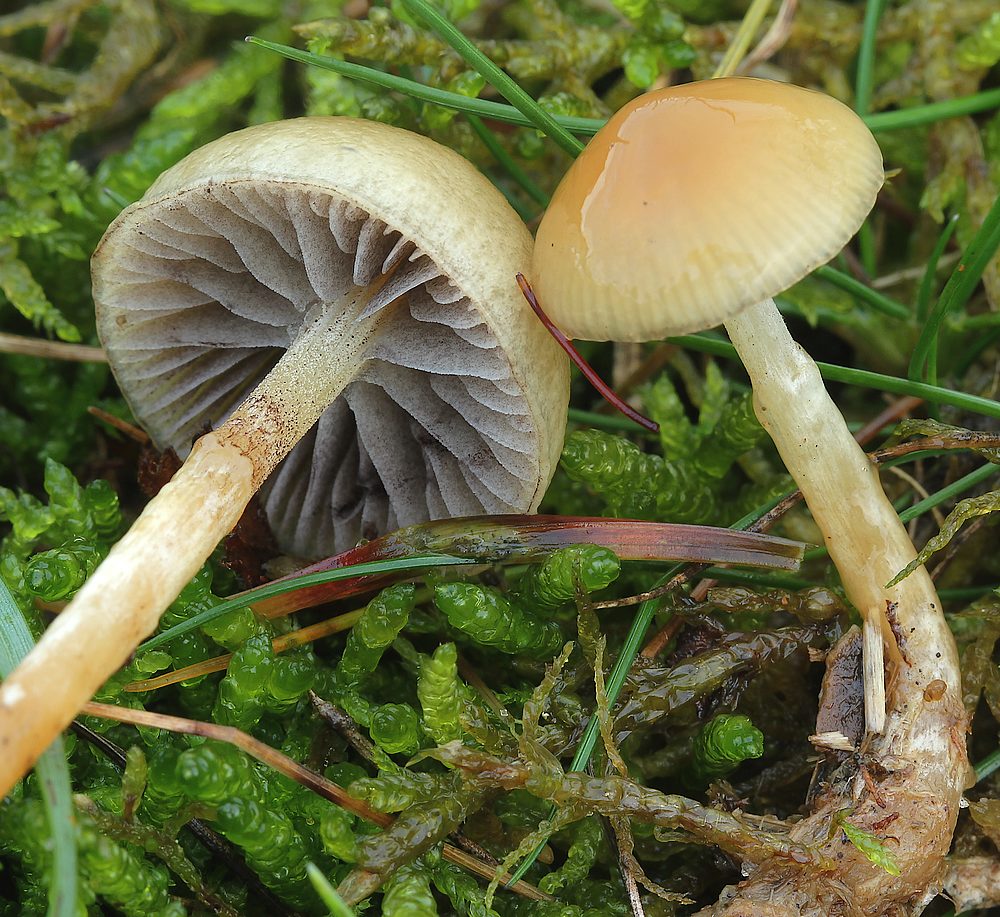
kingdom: Fungi
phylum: Basidiomycota
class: Agaricomycetes
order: Agaricales
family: Strophariaceae
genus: Protostropharia
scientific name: Protostropharia semiglobata
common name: halvkugleformet bredblad
